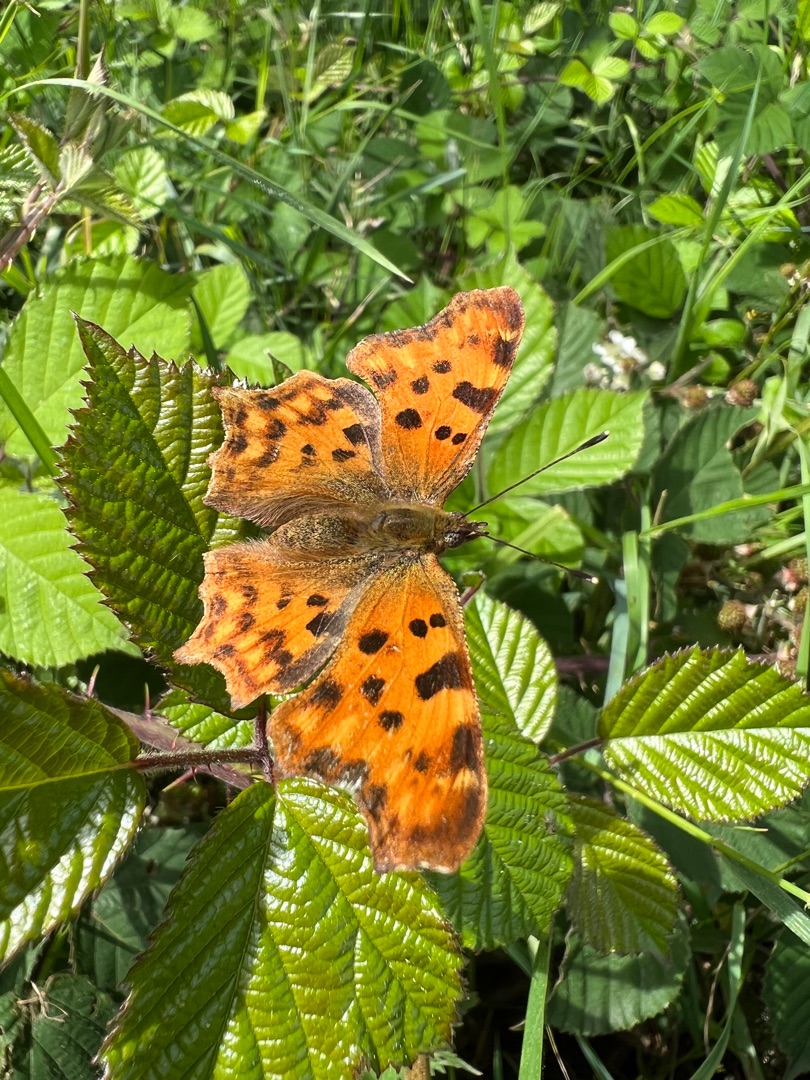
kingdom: Animalia
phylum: Arthropoda
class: Insecta
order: Lepidoptera
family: Nymphalidae
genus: Polygonia
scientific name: Polygonia c-album
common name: Det hvide C
